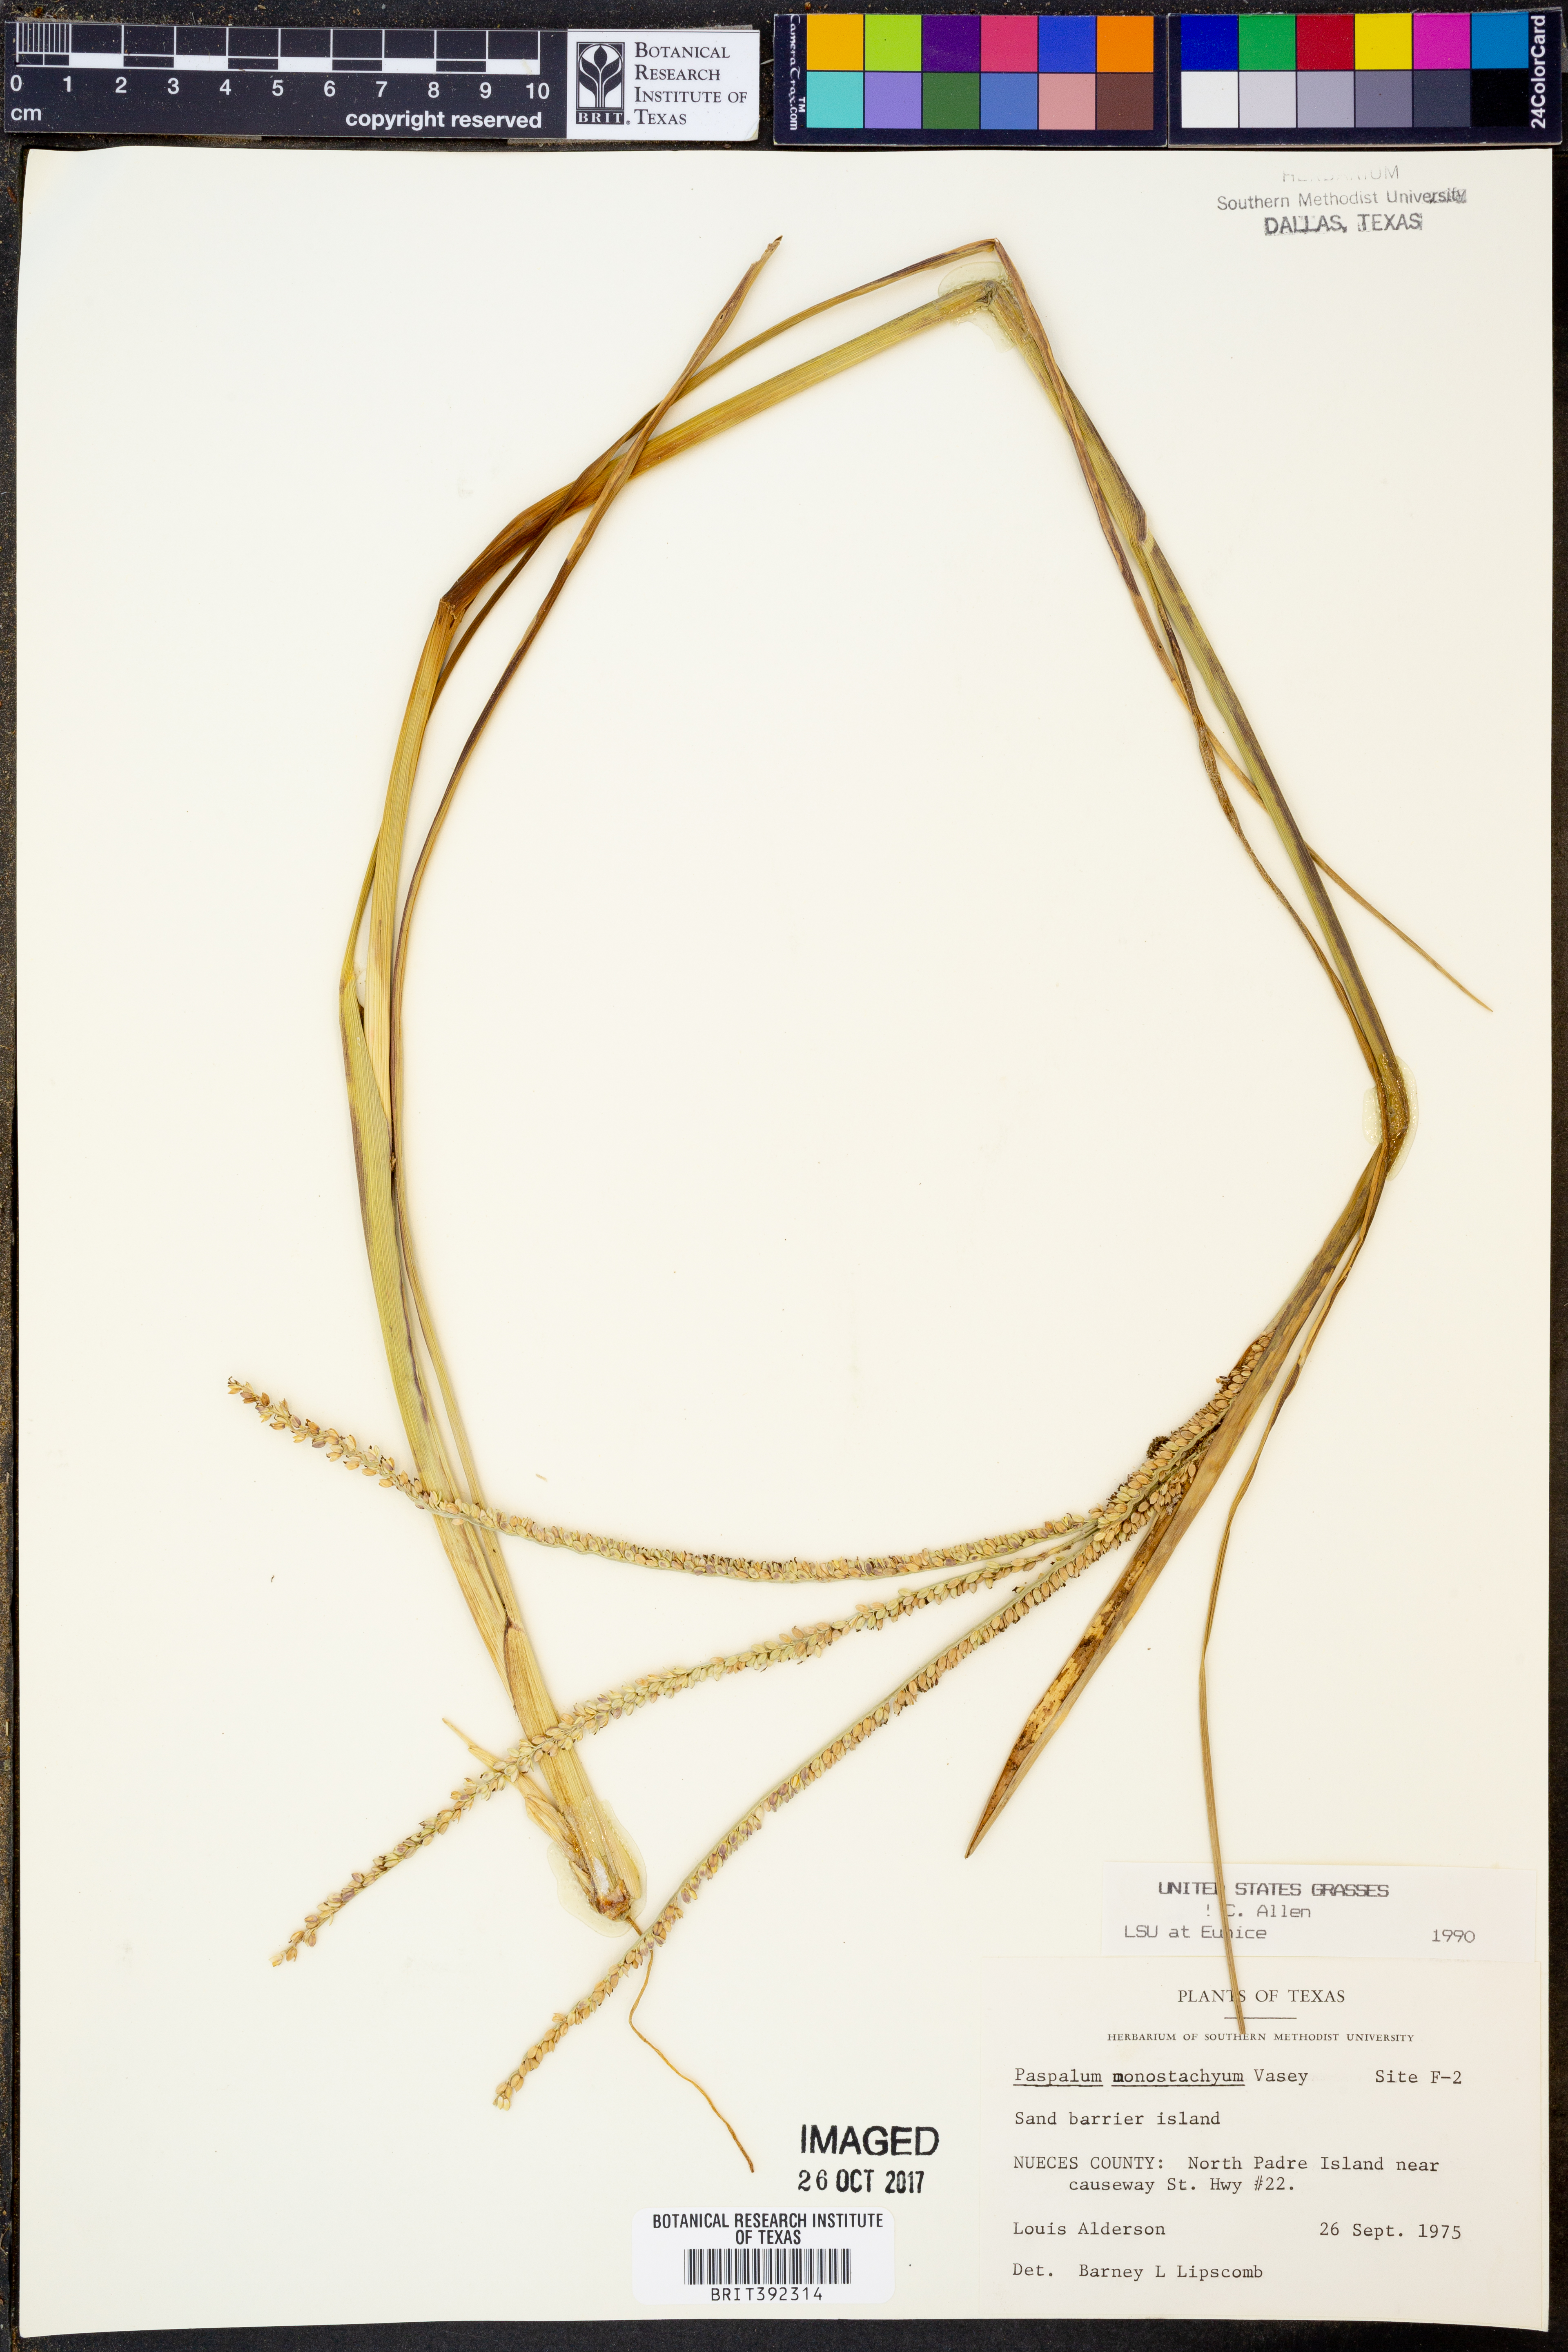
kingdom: Plantae
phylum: Tracheophyta
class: Liliopsida
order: Poales
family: Poaceae
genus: Paspalum
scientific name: Paspalum monostachyum
